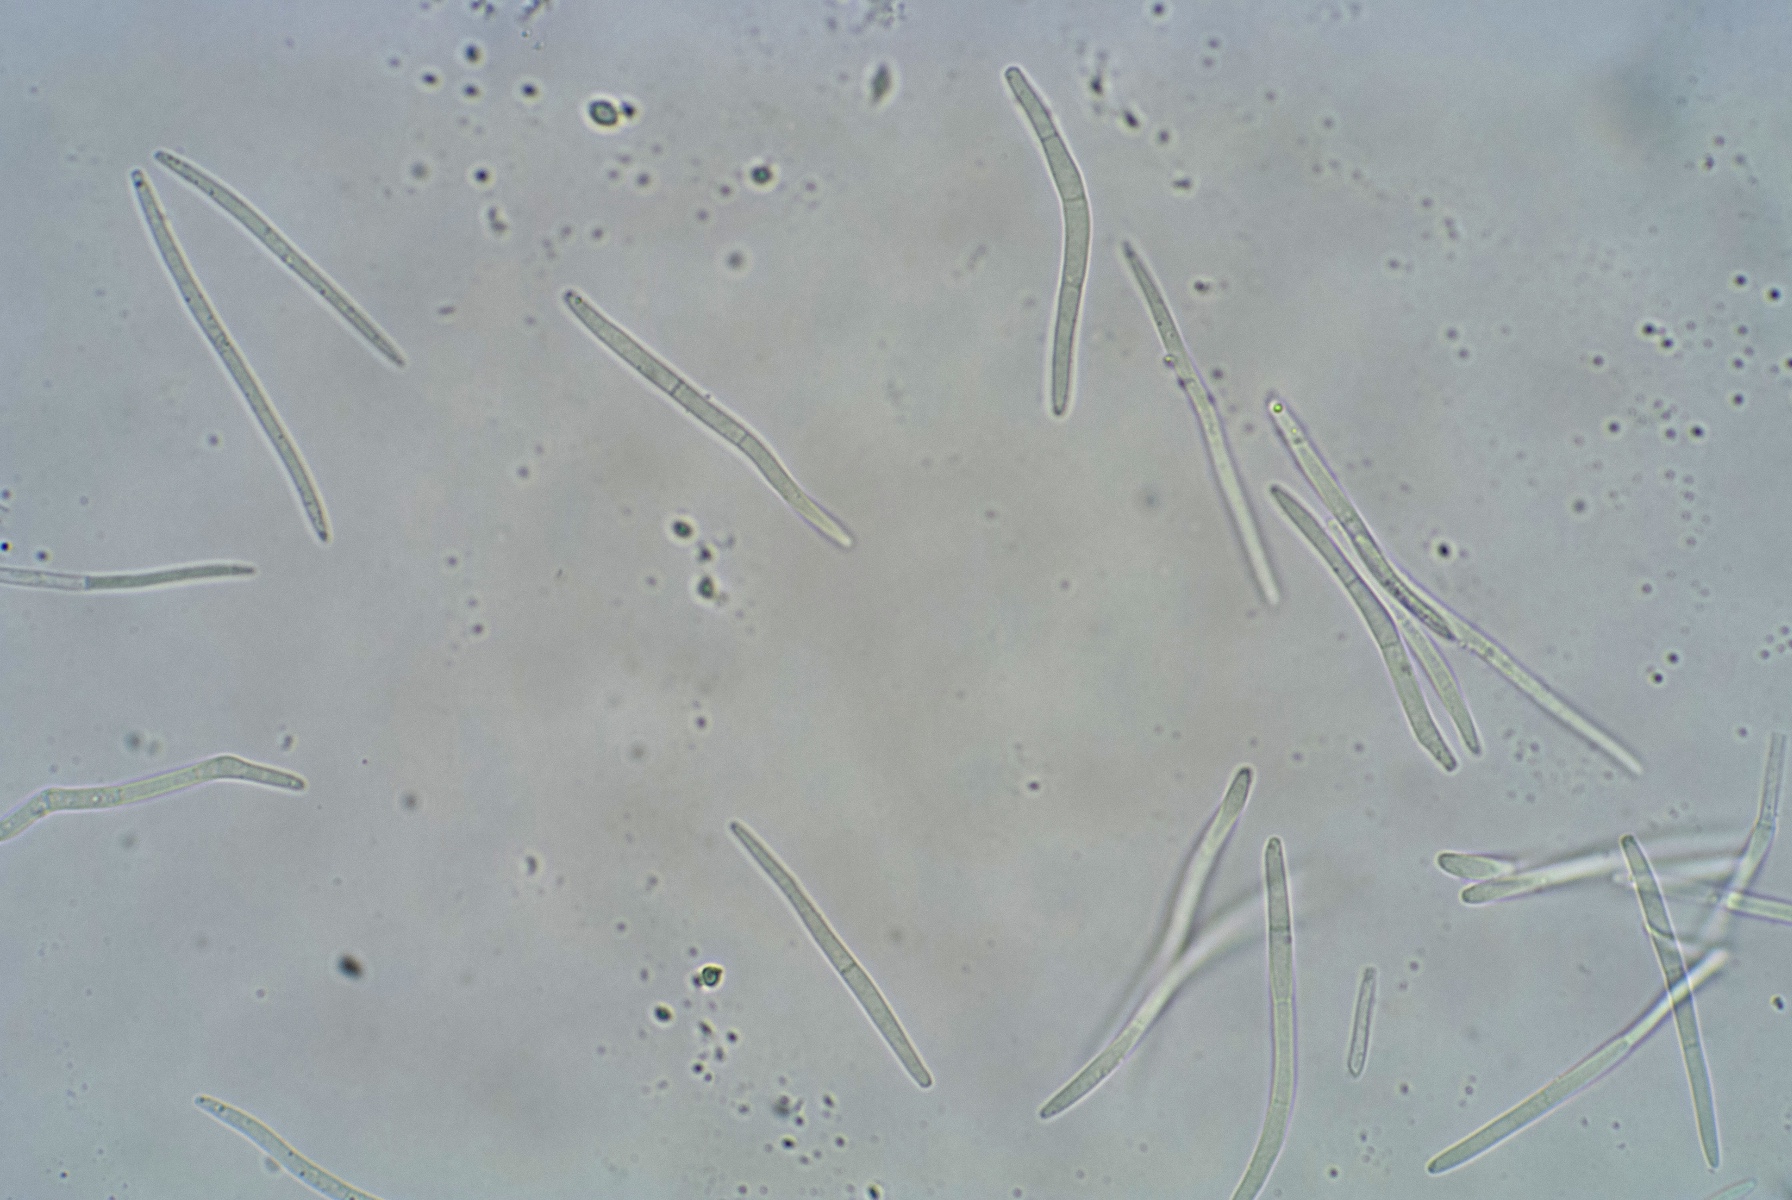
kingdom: Fungi
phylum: Ascomycota
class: Dothideomycetes
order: Mycosphaerellales
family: Mycosphaerellaceae
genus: Septoria
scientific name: Septoria petroselini
